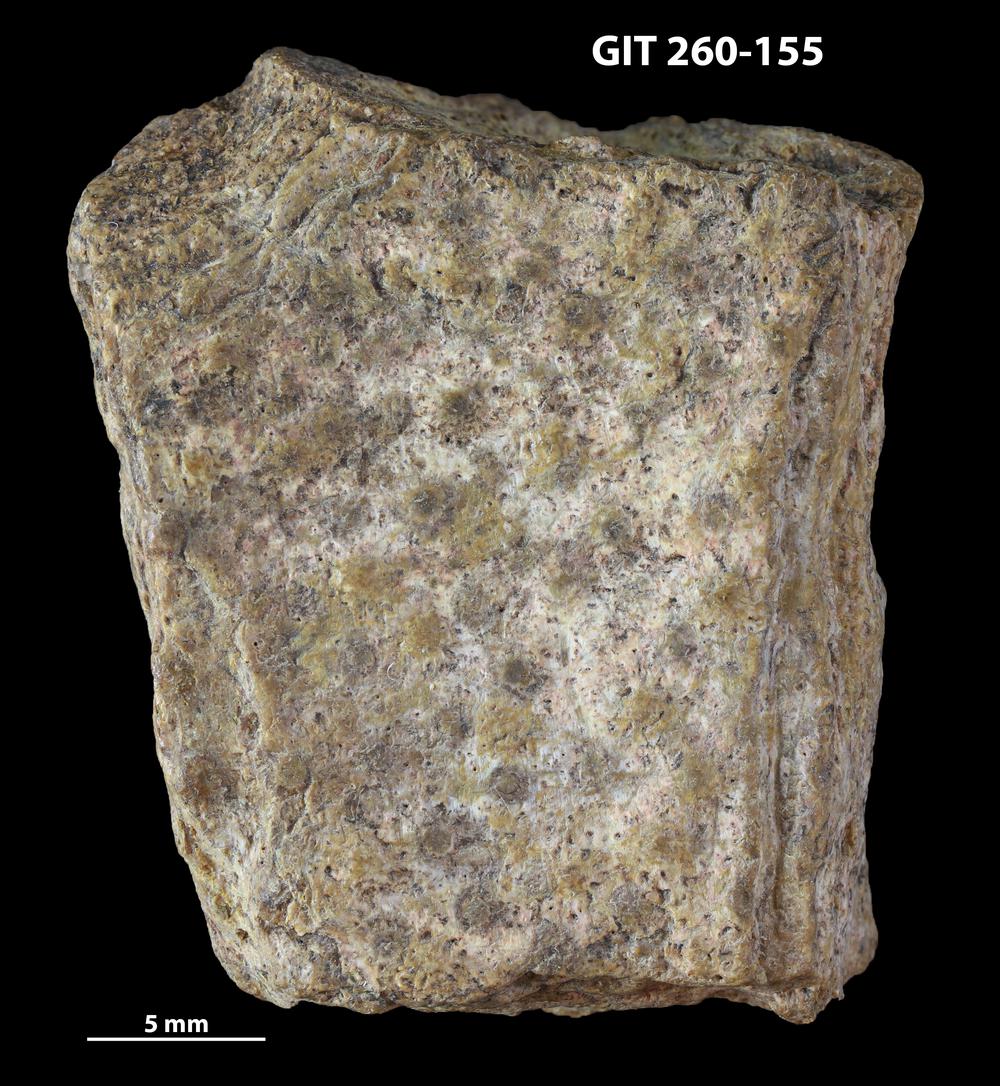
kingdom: Animalia
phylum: Chordata
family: Homostiidae
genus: Homostius
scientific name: Homostius
